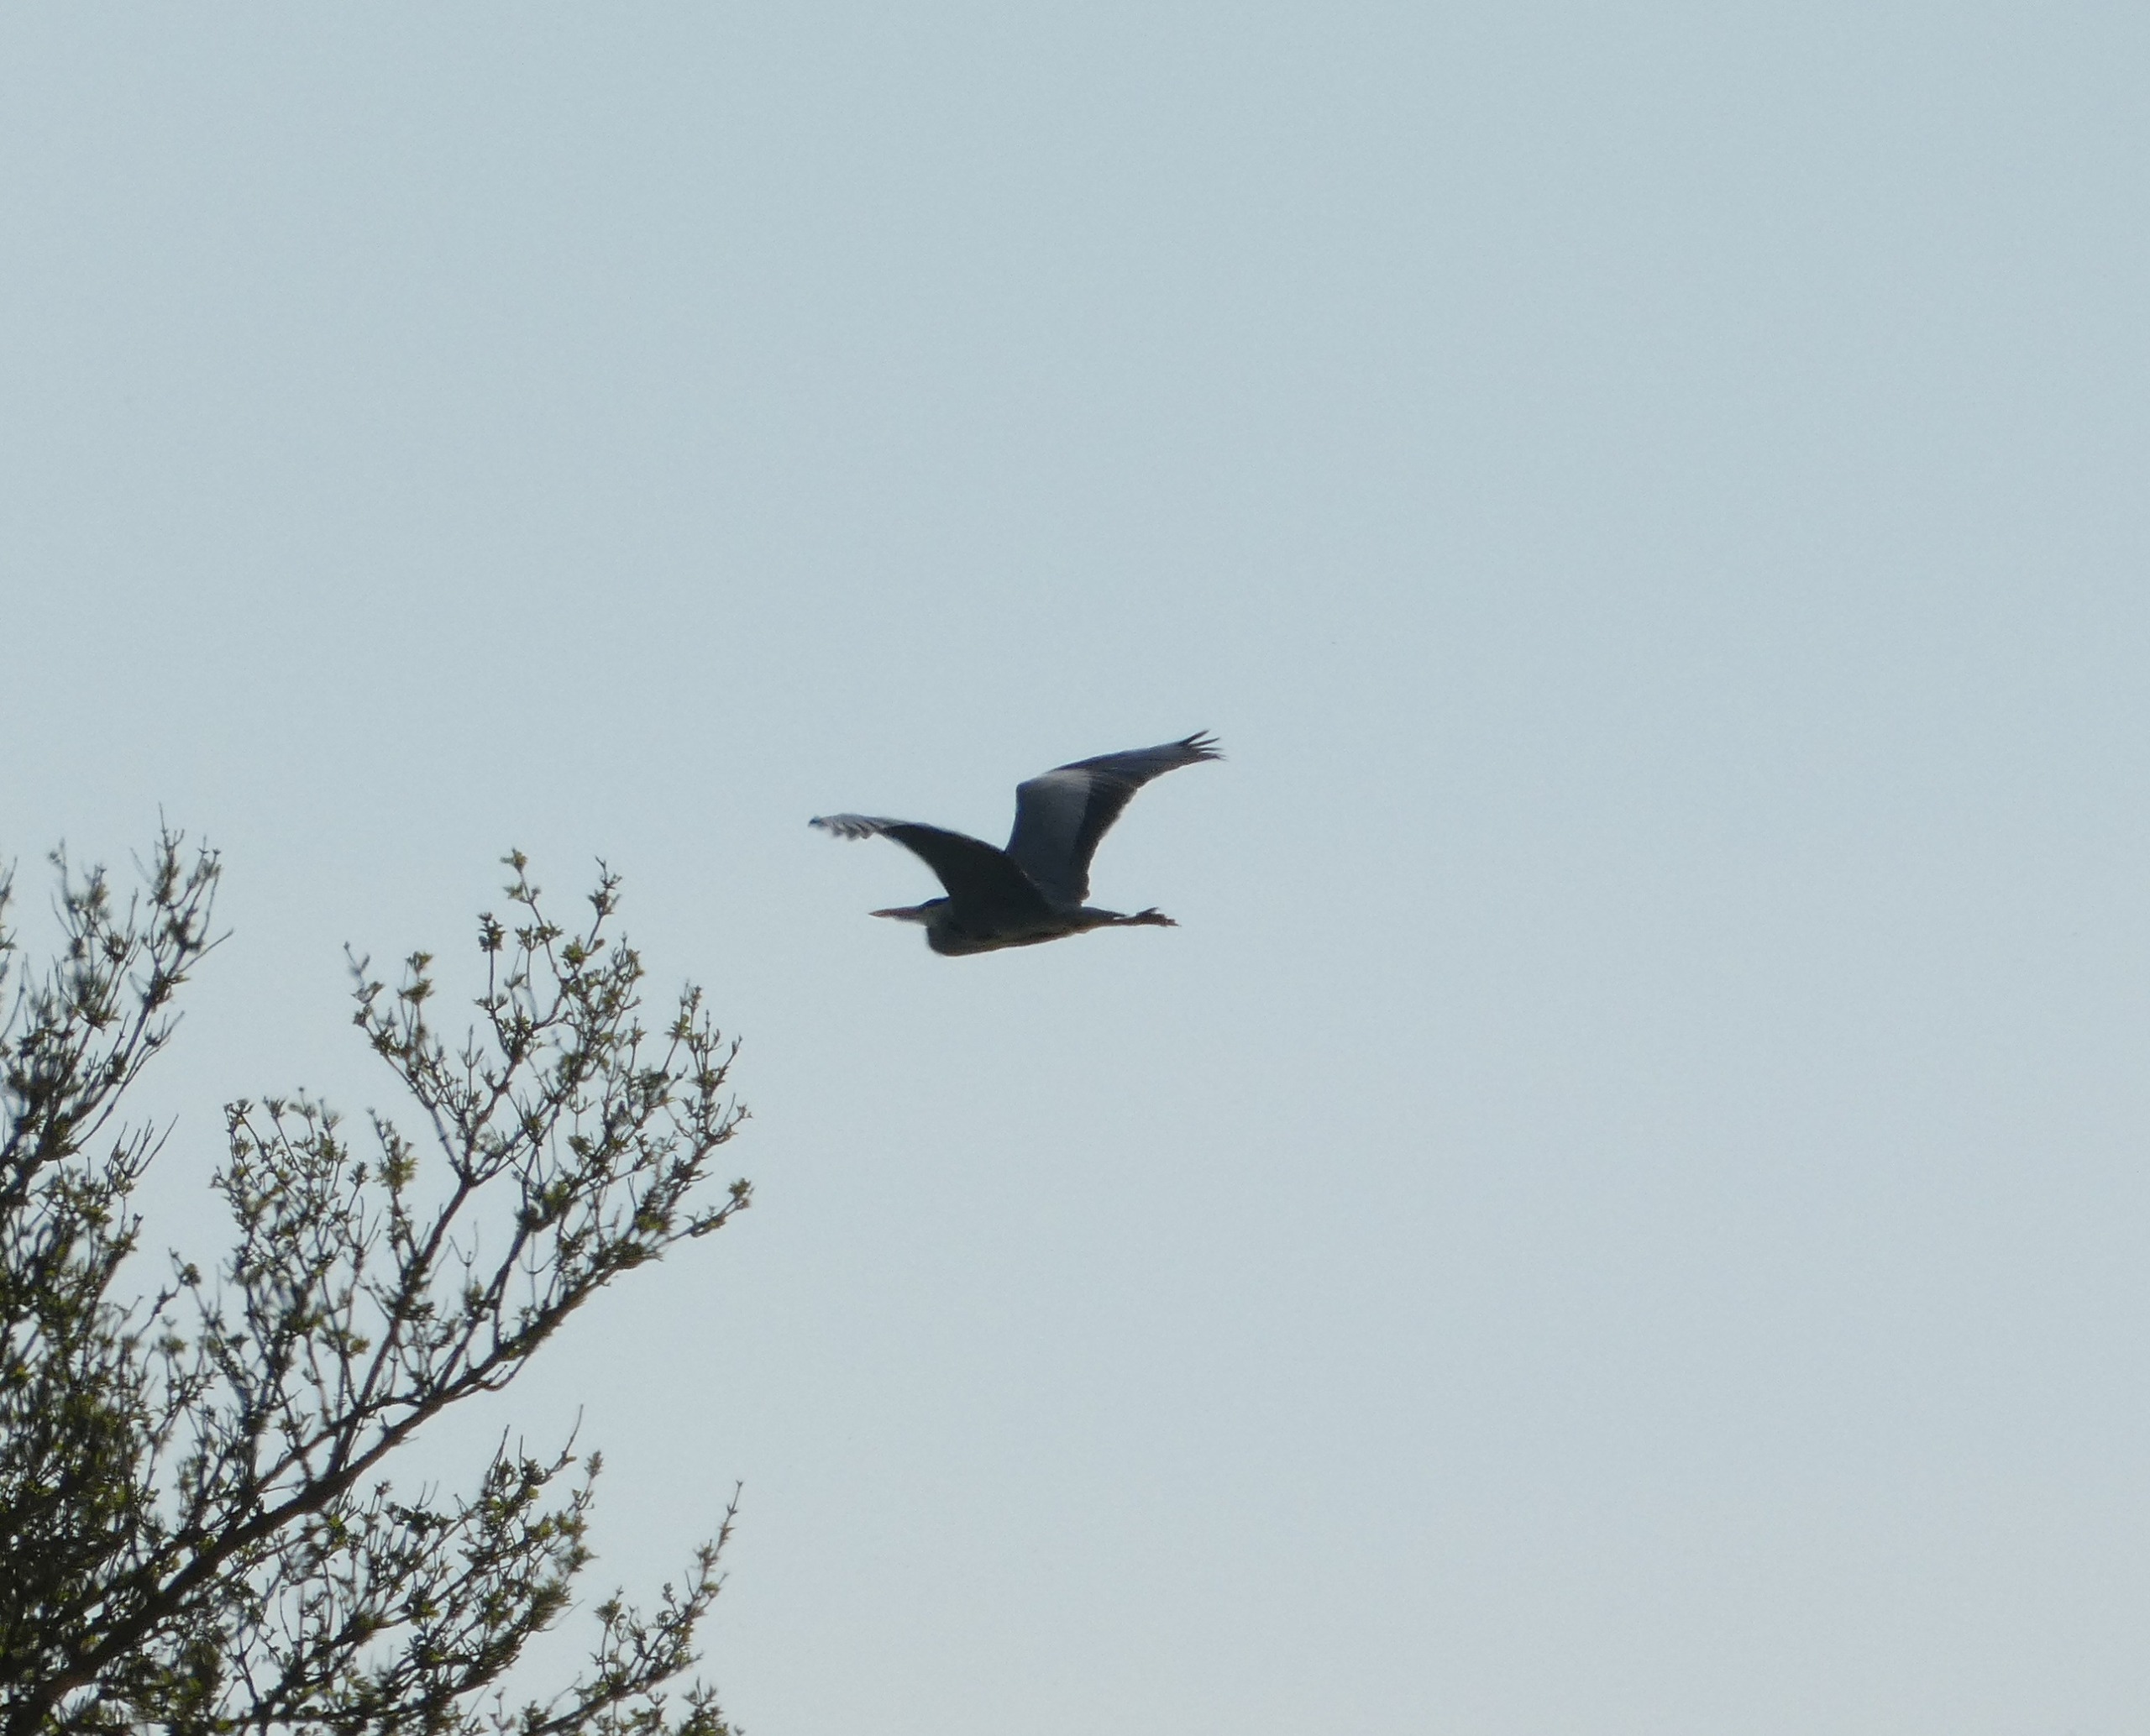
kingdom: Animalia
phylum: Chordata
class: Aves
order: Pelecaniformes
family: Ardeidae
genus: Ardea
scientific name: Ardea cinerea
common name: Fiskehejre
